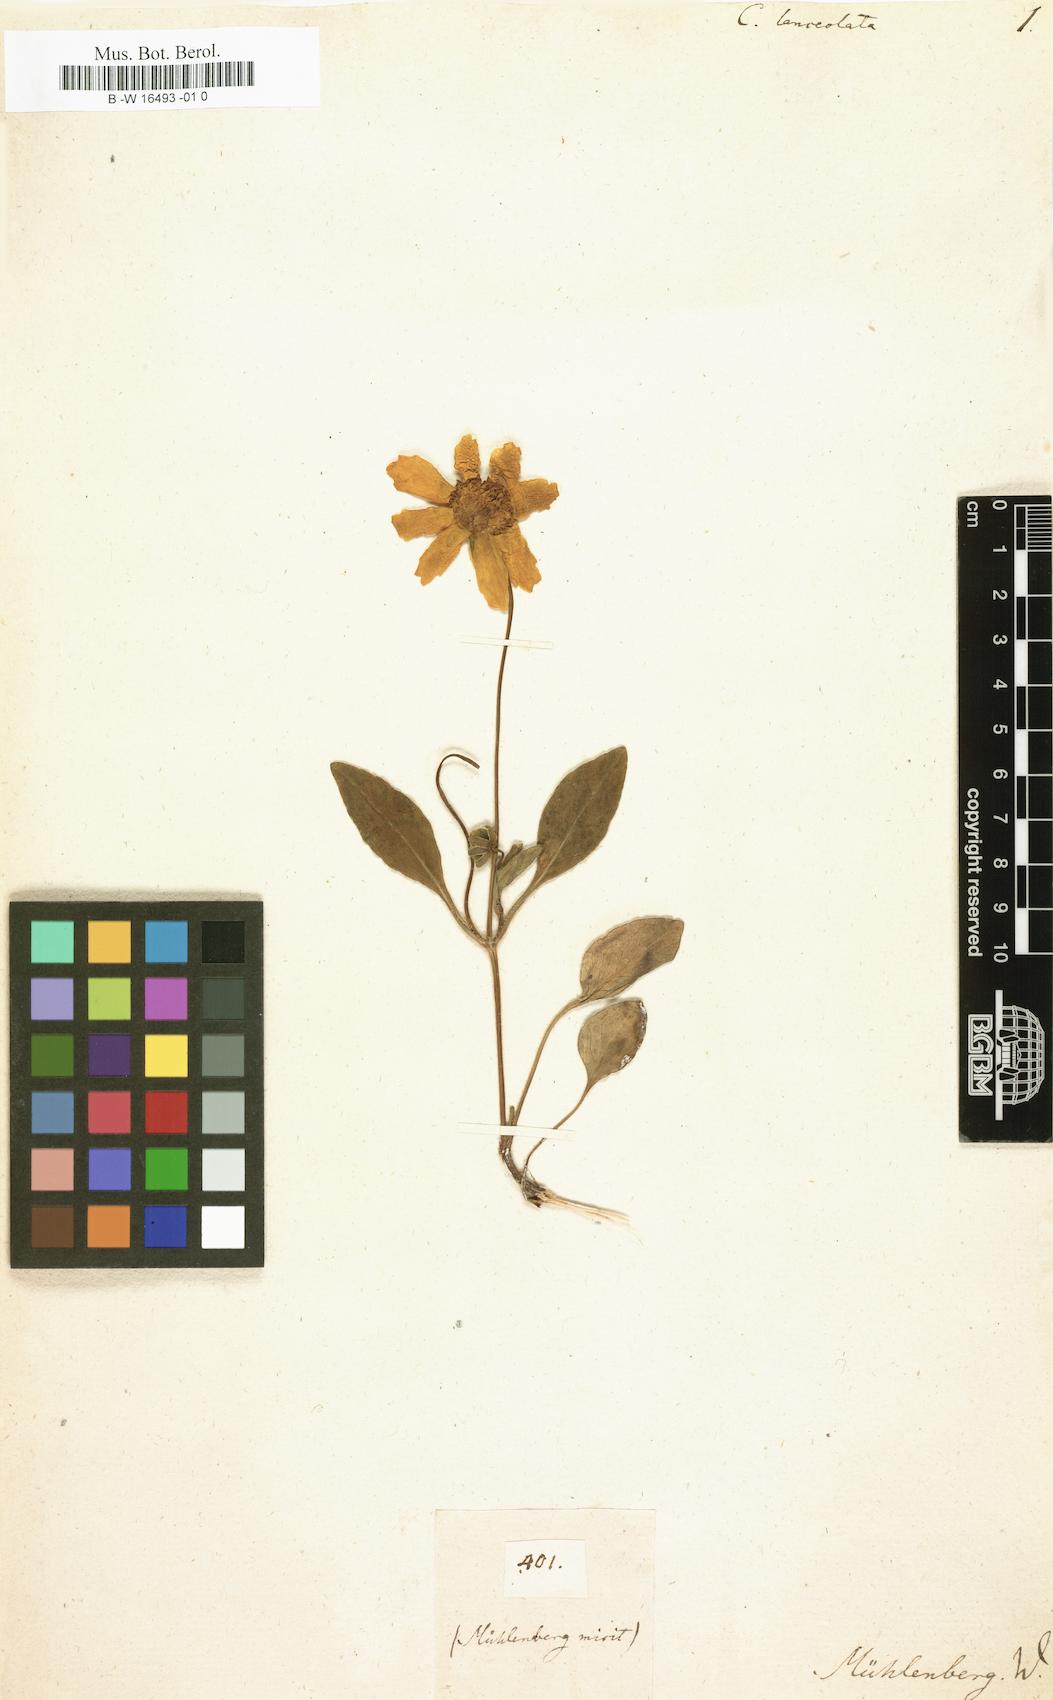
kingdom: Plantae
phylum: Tracheophyta
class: Magnoliopsida
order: Asterales
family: Asteraceae
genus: Coreopsis
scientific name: Coreopsis lanceolata
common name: Garden coreopsis
